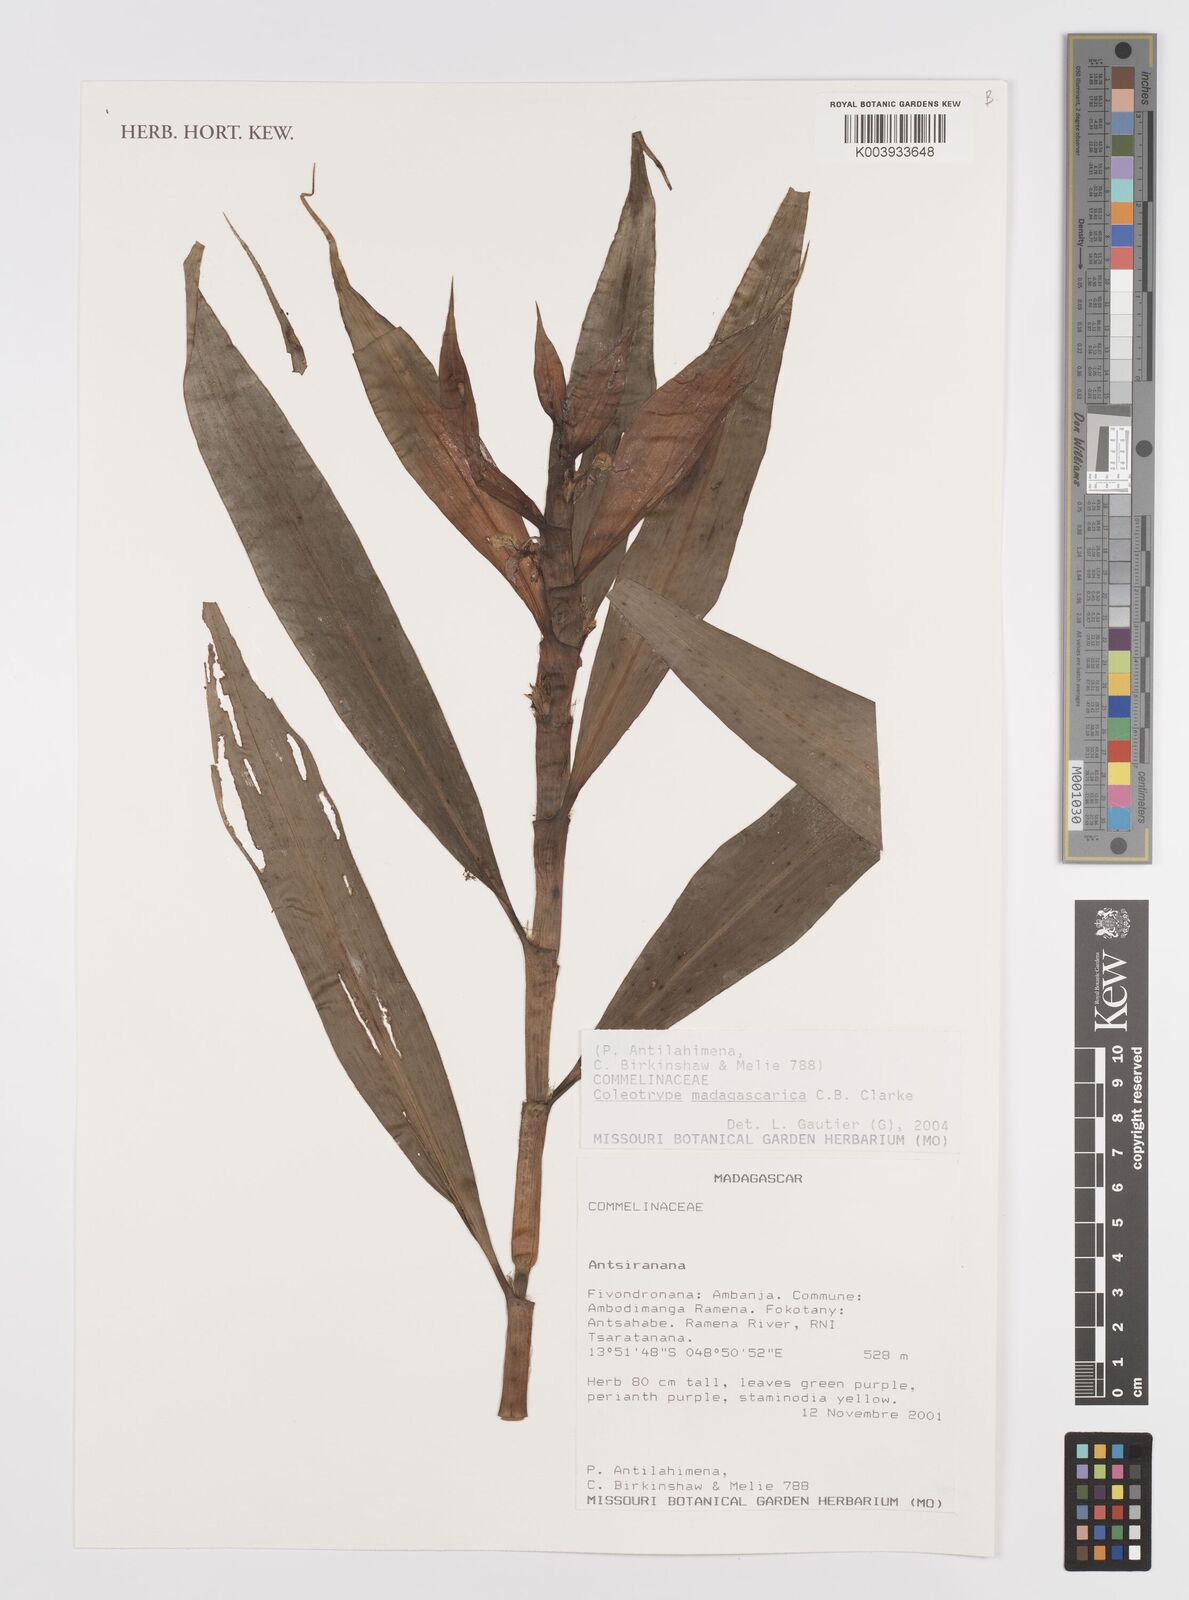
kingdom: Plantae
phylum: Tracheophyta
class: Liliopsida
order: Commelinales
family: Commelinaceae
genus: Coleotrype
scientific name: Coleotrype madagascarica
